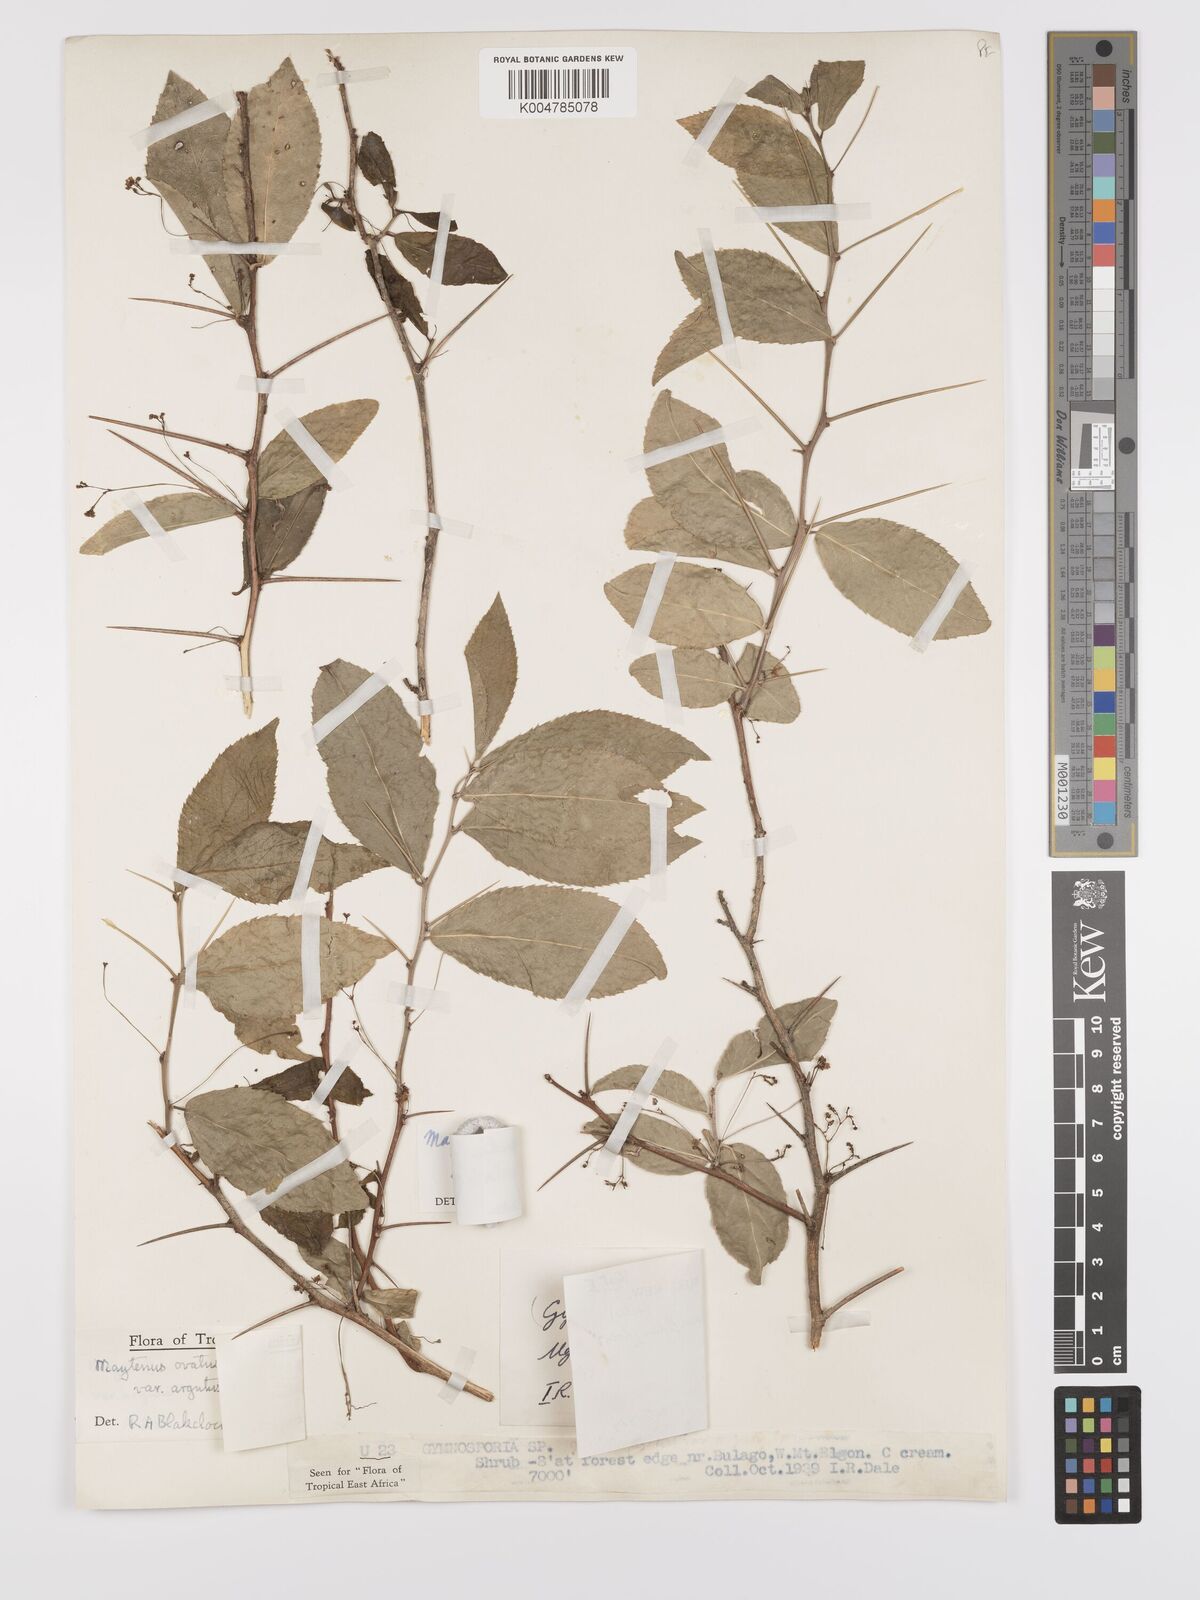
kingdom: Plantae
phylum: Tracheophyta
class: Magnoliopsida
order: Celastrales
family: Celastraceae
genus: Gymnosporia
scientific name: Gymnosporia gracilipes
